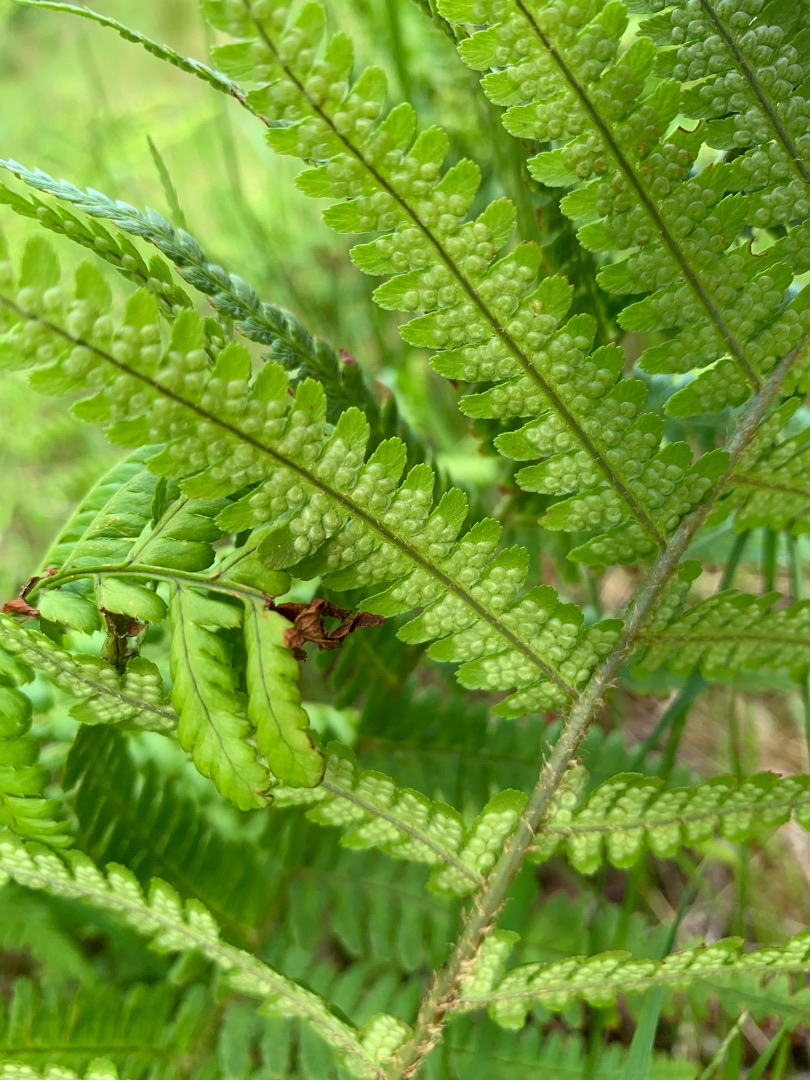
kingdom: Plantae
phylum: Tracheophyta
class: Polypodiopsida
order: Polypodiales
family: Dryopteridaceae
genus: Dryopteris
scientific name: Dryopteris filix-mas
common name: Almindelig mangeløv
